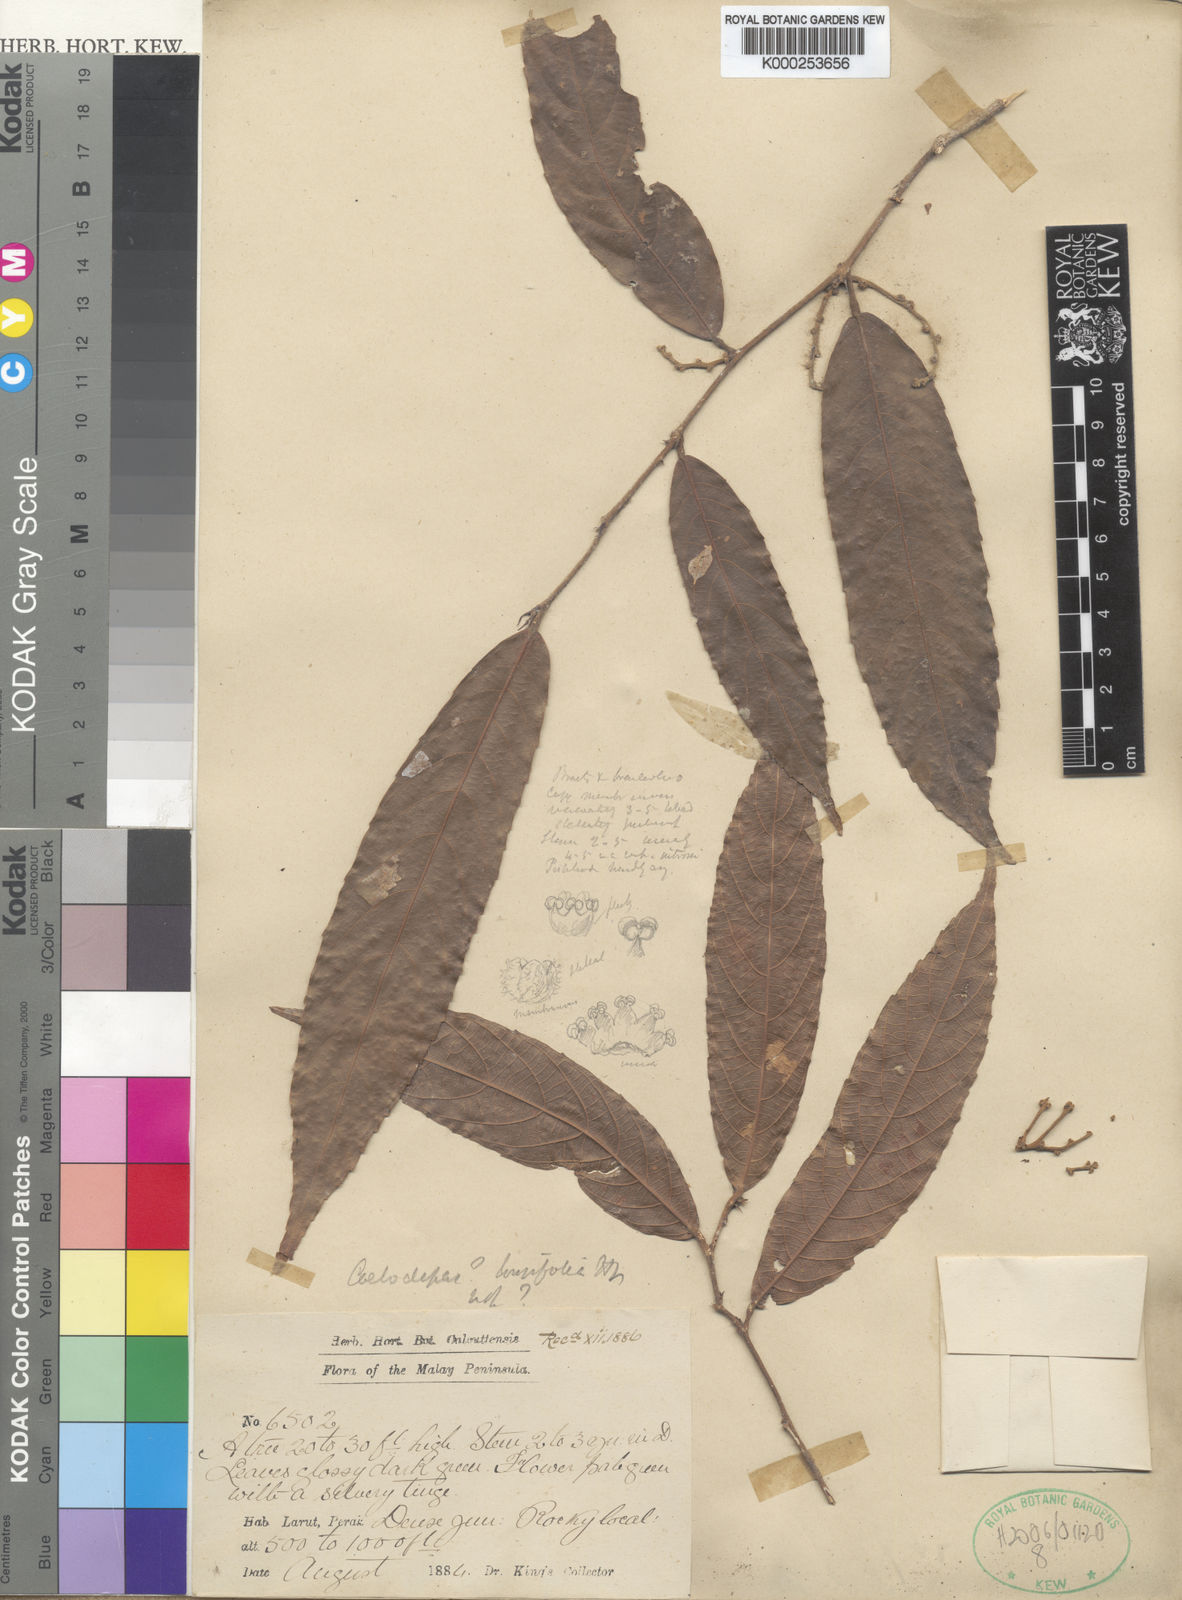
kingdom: Plantae
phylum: Tracheophyta
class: Magnoliopsida
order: Malpighiales
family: Euphorbiaceae
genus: Koilodepas
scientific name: Koilodepas longifolium
